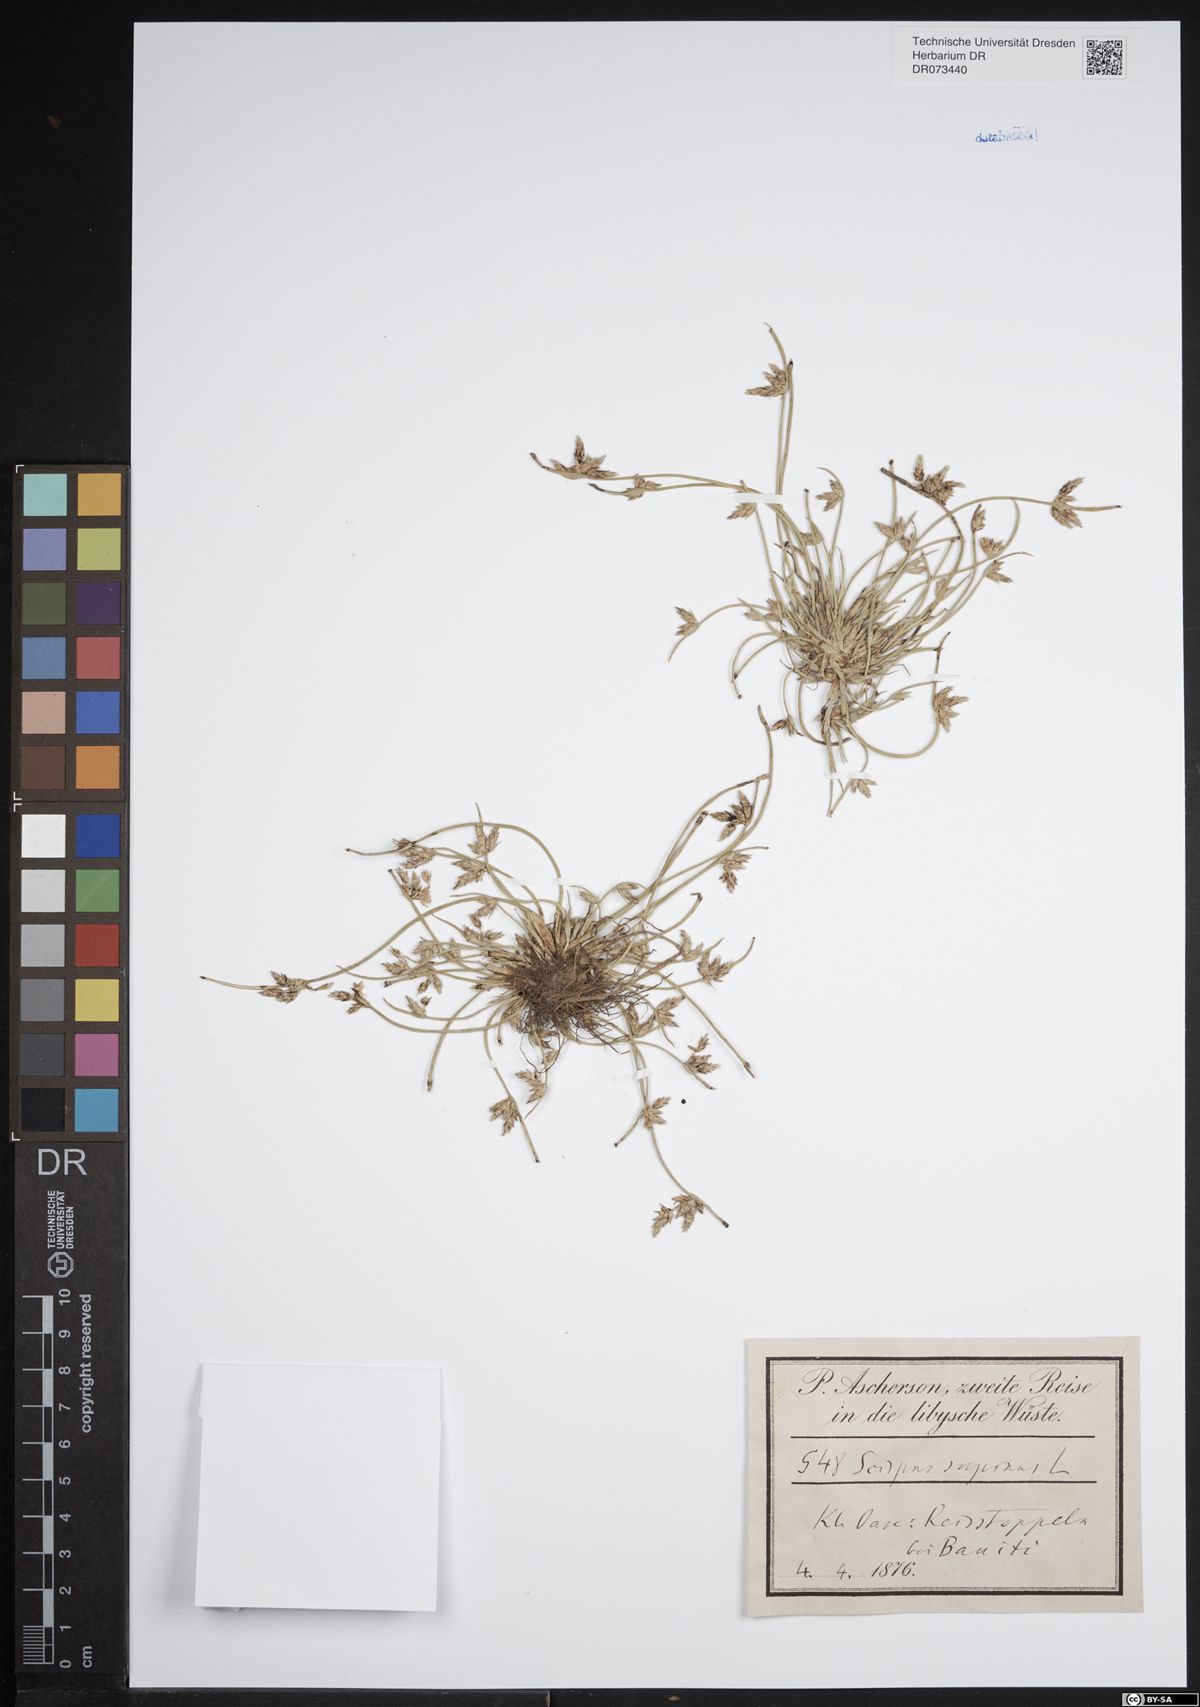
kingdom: Plantae
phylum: Tracheophyta
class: Liliopsida
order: Poales
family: Cyperaceae
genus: Schoenoplectiella
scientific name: Schoenoplectiella supina
